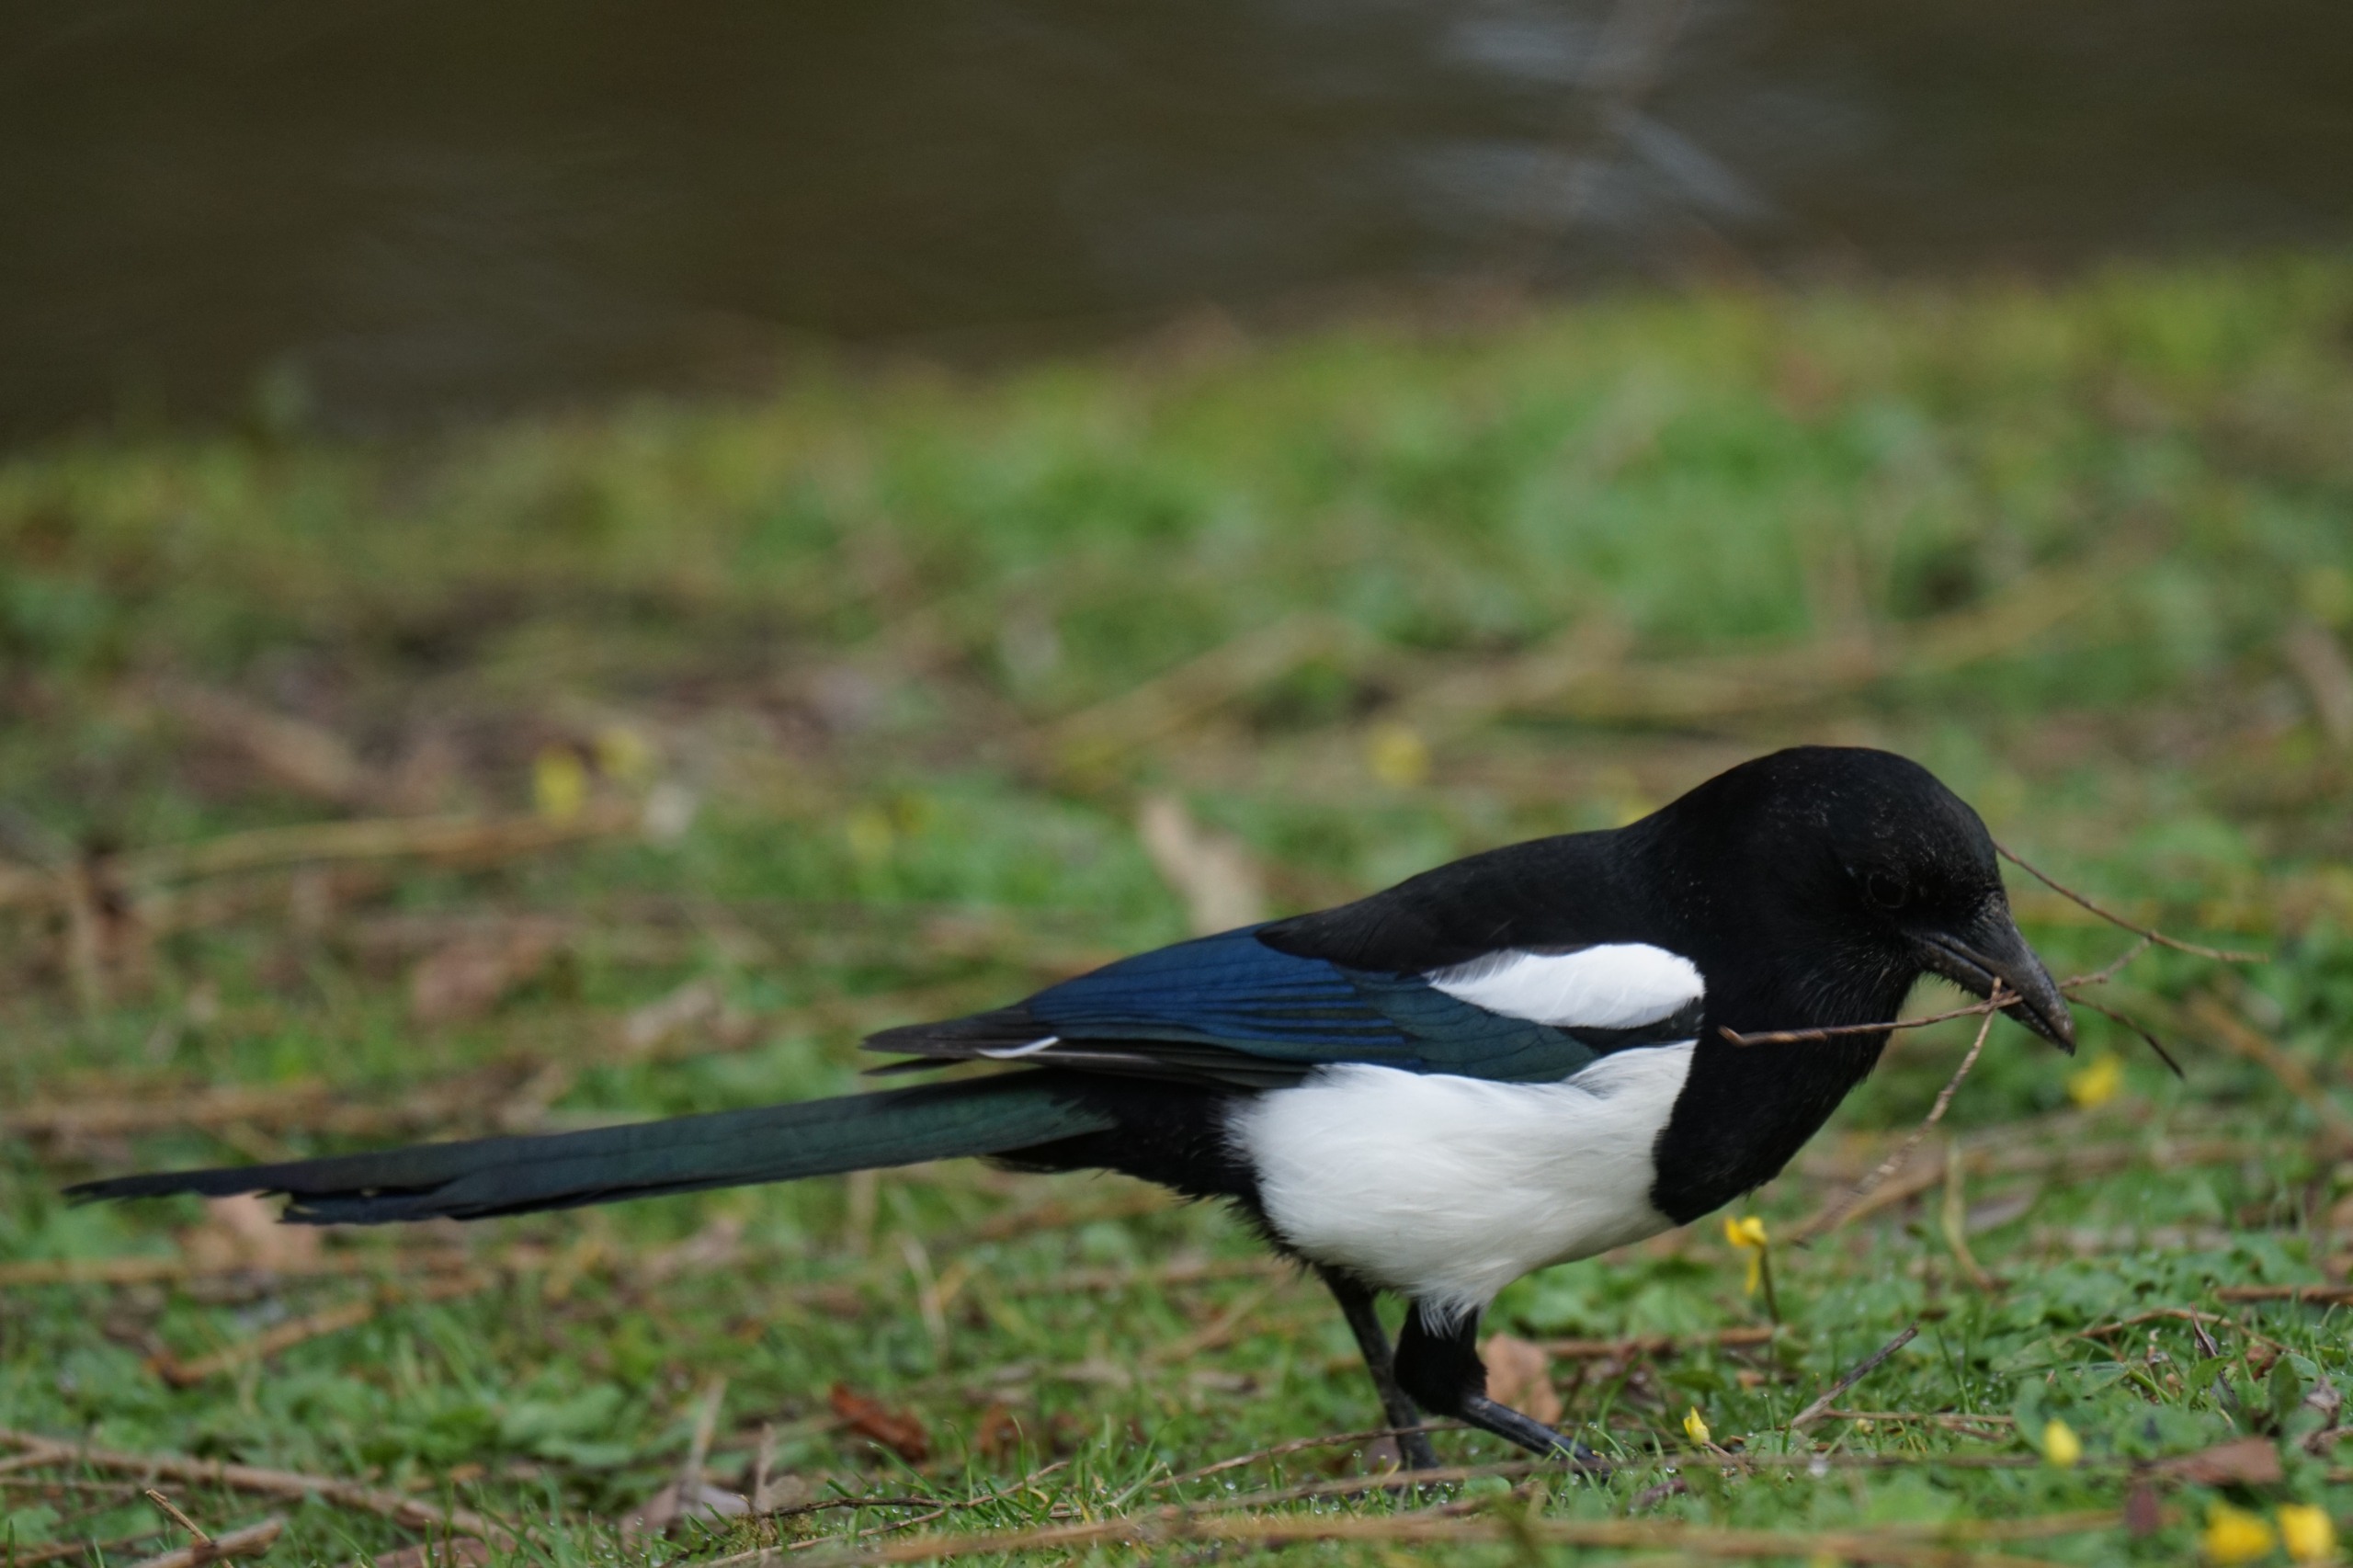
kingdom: Animalia
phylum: Chordata
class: Aves
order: Passeriformes
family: Corvidae
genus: Pica
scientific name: Pica pica
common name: Husskade
